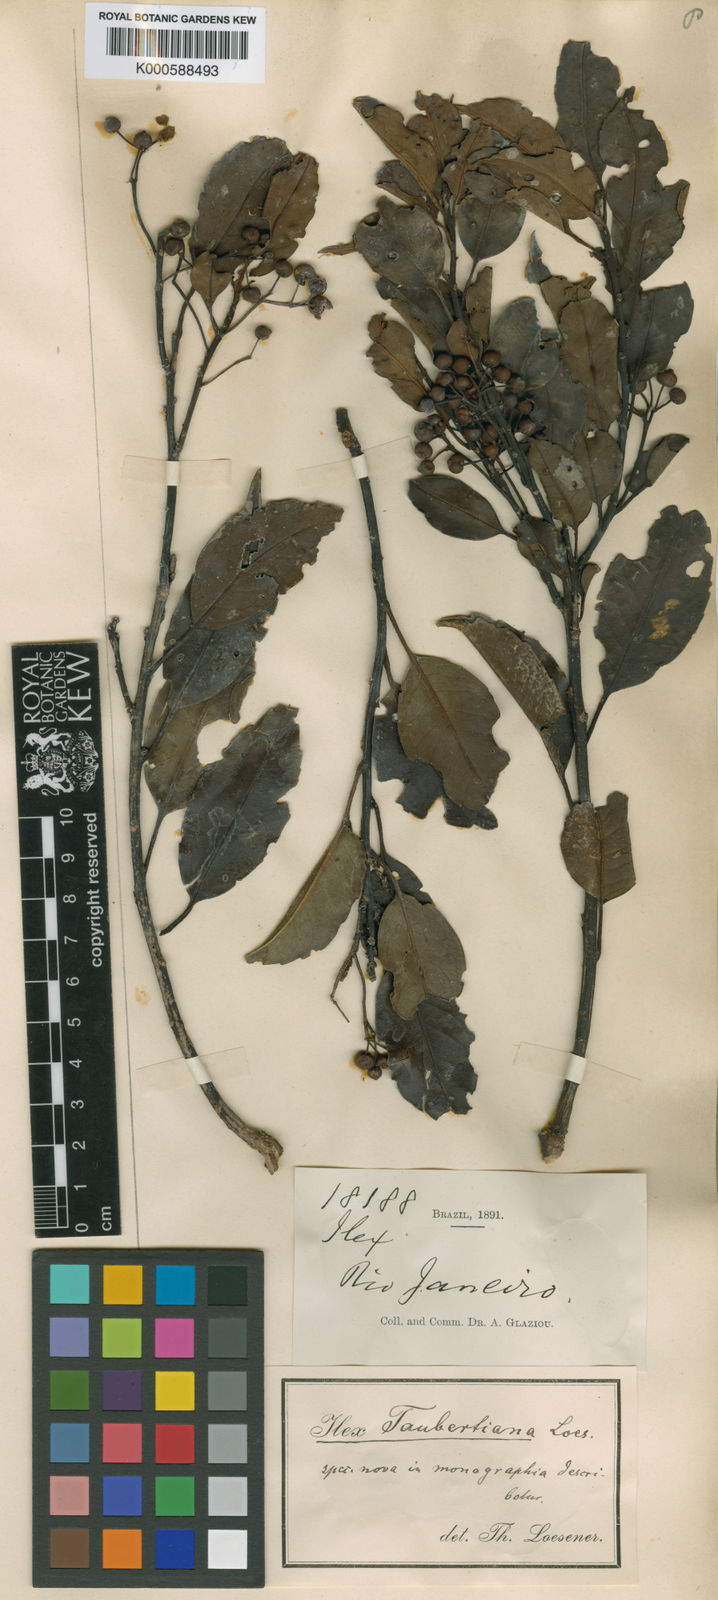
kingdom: Plantae
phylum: Tracheophyta
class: Magnoliopsida
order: Aquifoliales
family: Aquifoliaceae
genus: Ilex
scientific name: Ilex taubertiana
